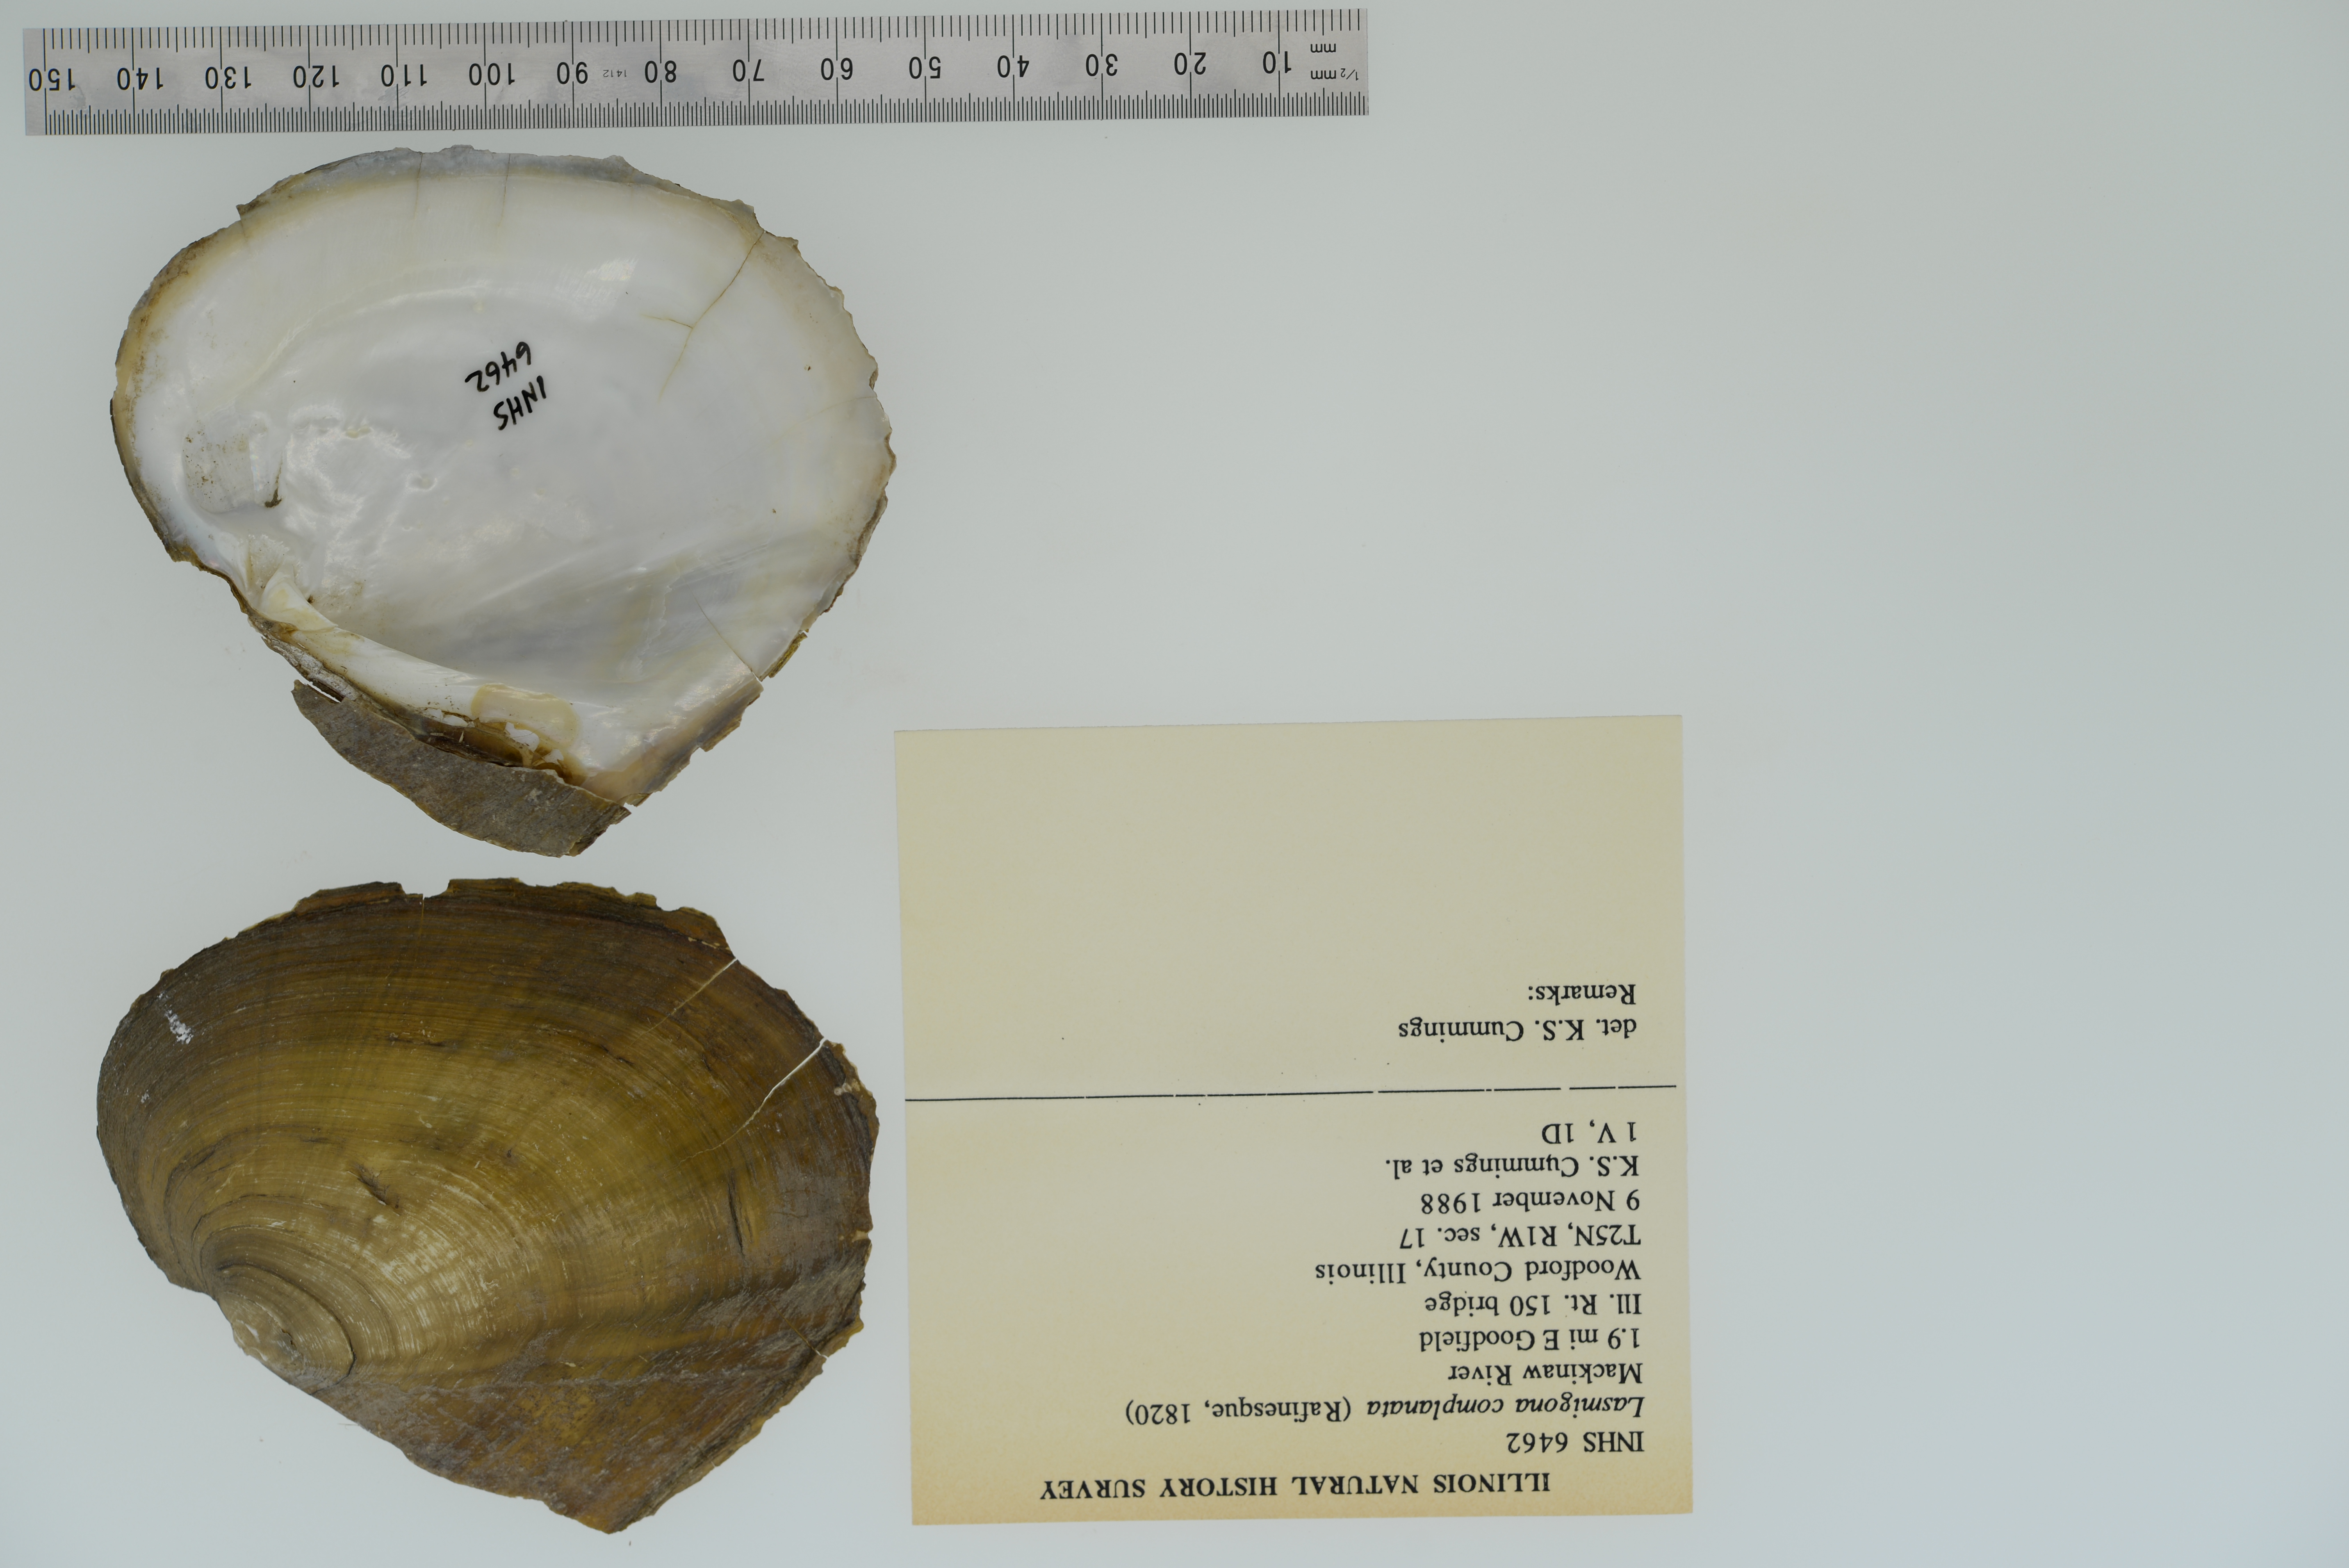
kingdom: Animalia
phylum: Mollusca
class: Bivalvia
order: Unionida
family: Unionidae
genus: Lasmigona
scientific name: Lasmigona complanata
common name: White heelsplitter
